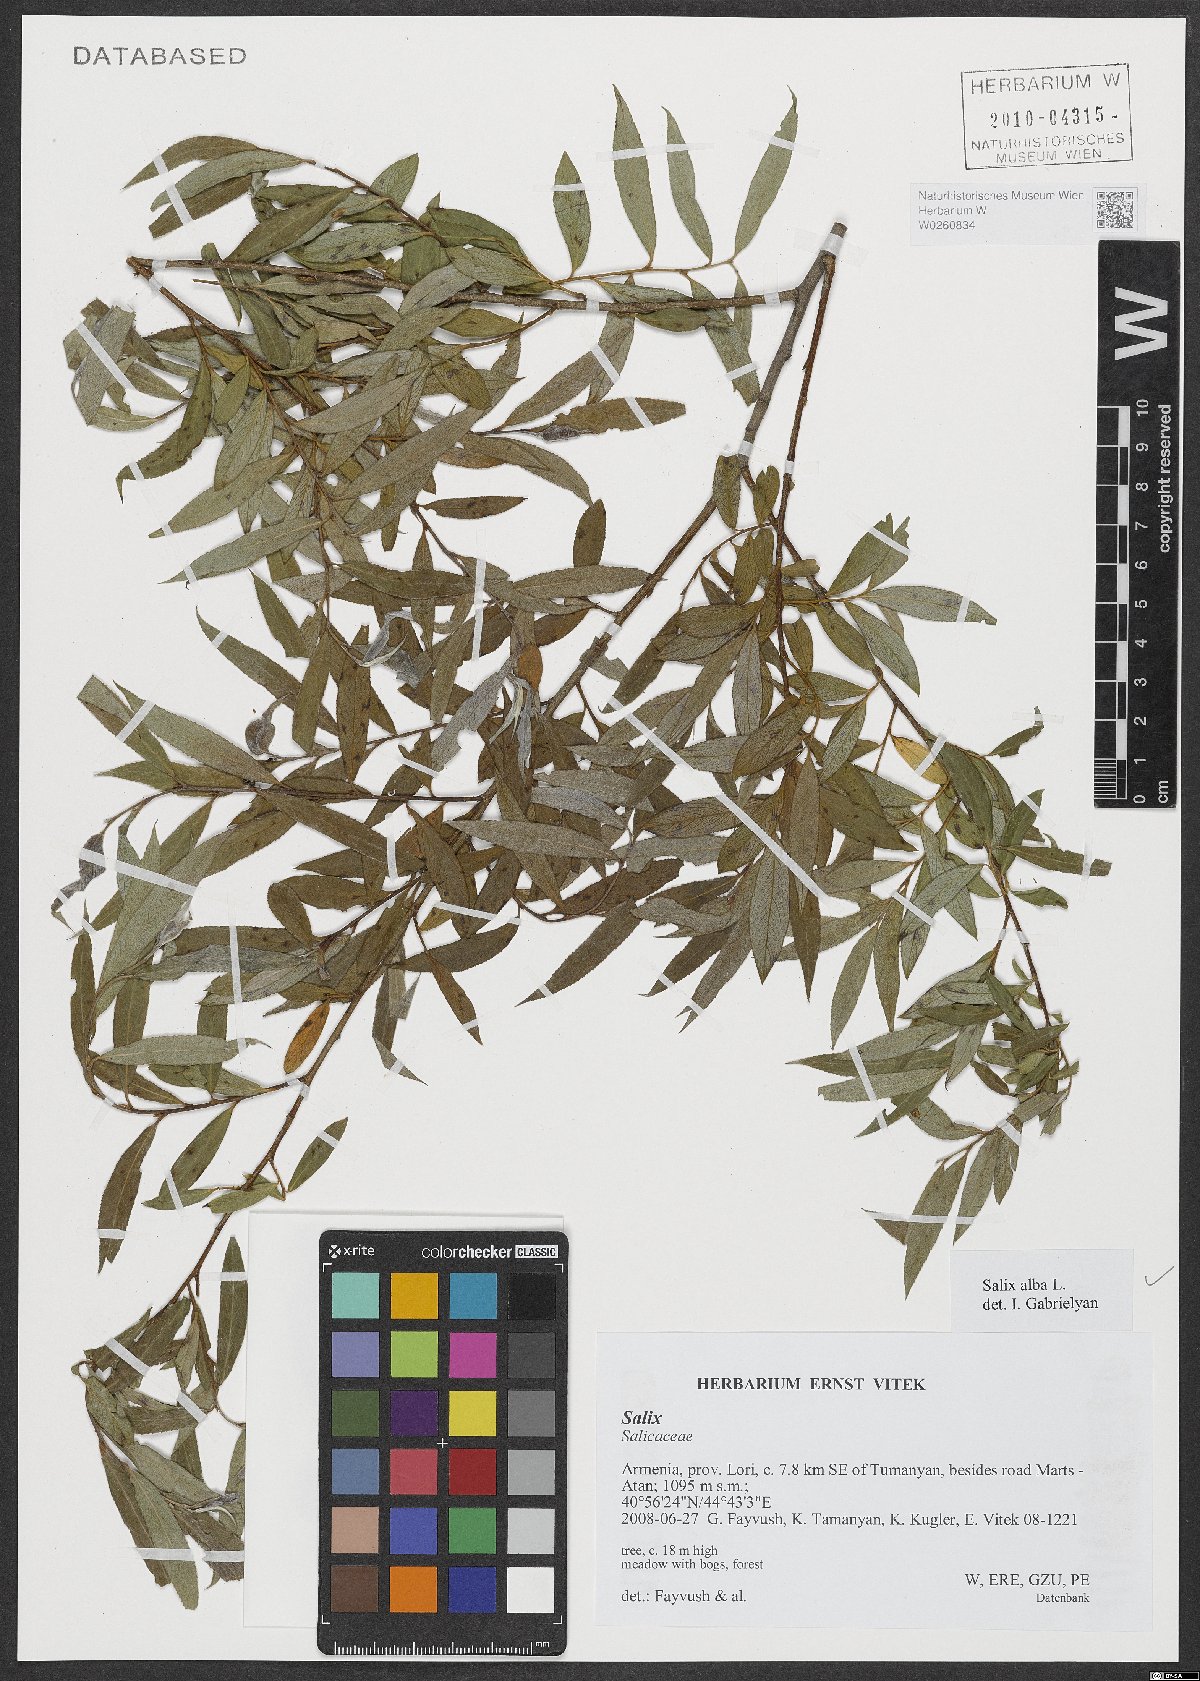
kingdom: Plantae
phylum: Tracheophyta
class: Magnoliopsida
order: Malpighiales
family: Salicaceae
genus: Salix
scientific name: Salix alba
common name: White willow
